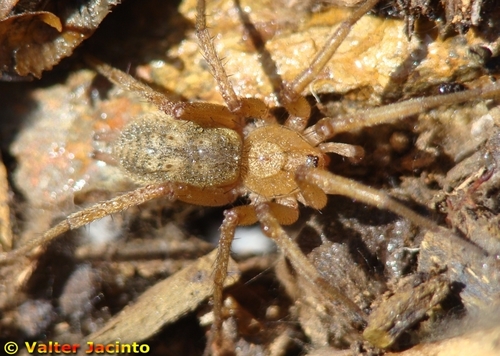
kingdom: Animalia
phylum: Arthropoda
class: Arachnida
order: Araneae
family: Gnaphosidae
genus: Pterotricha
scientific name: Pterotricha simoni
